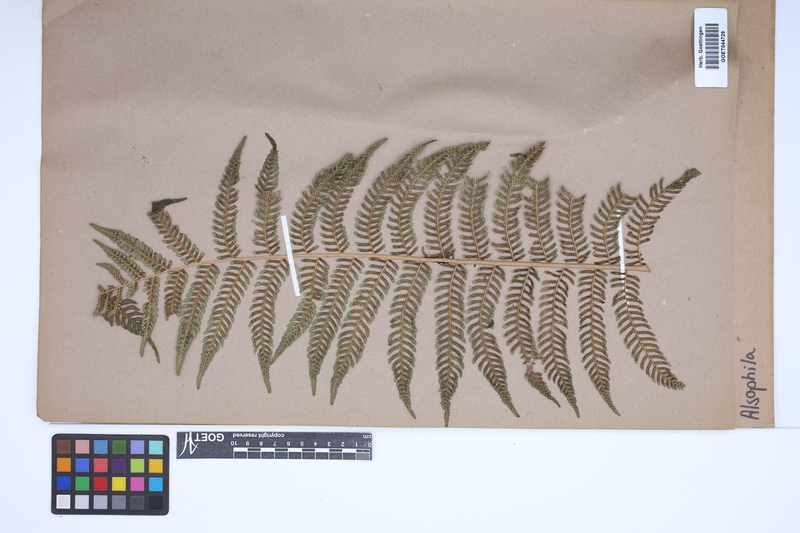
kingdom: Plantae
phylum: Tracheophyta
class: Polypodiopsida
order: Cyatheales
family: Cyatheaceae
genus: Alsophila
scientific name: Alsophila
